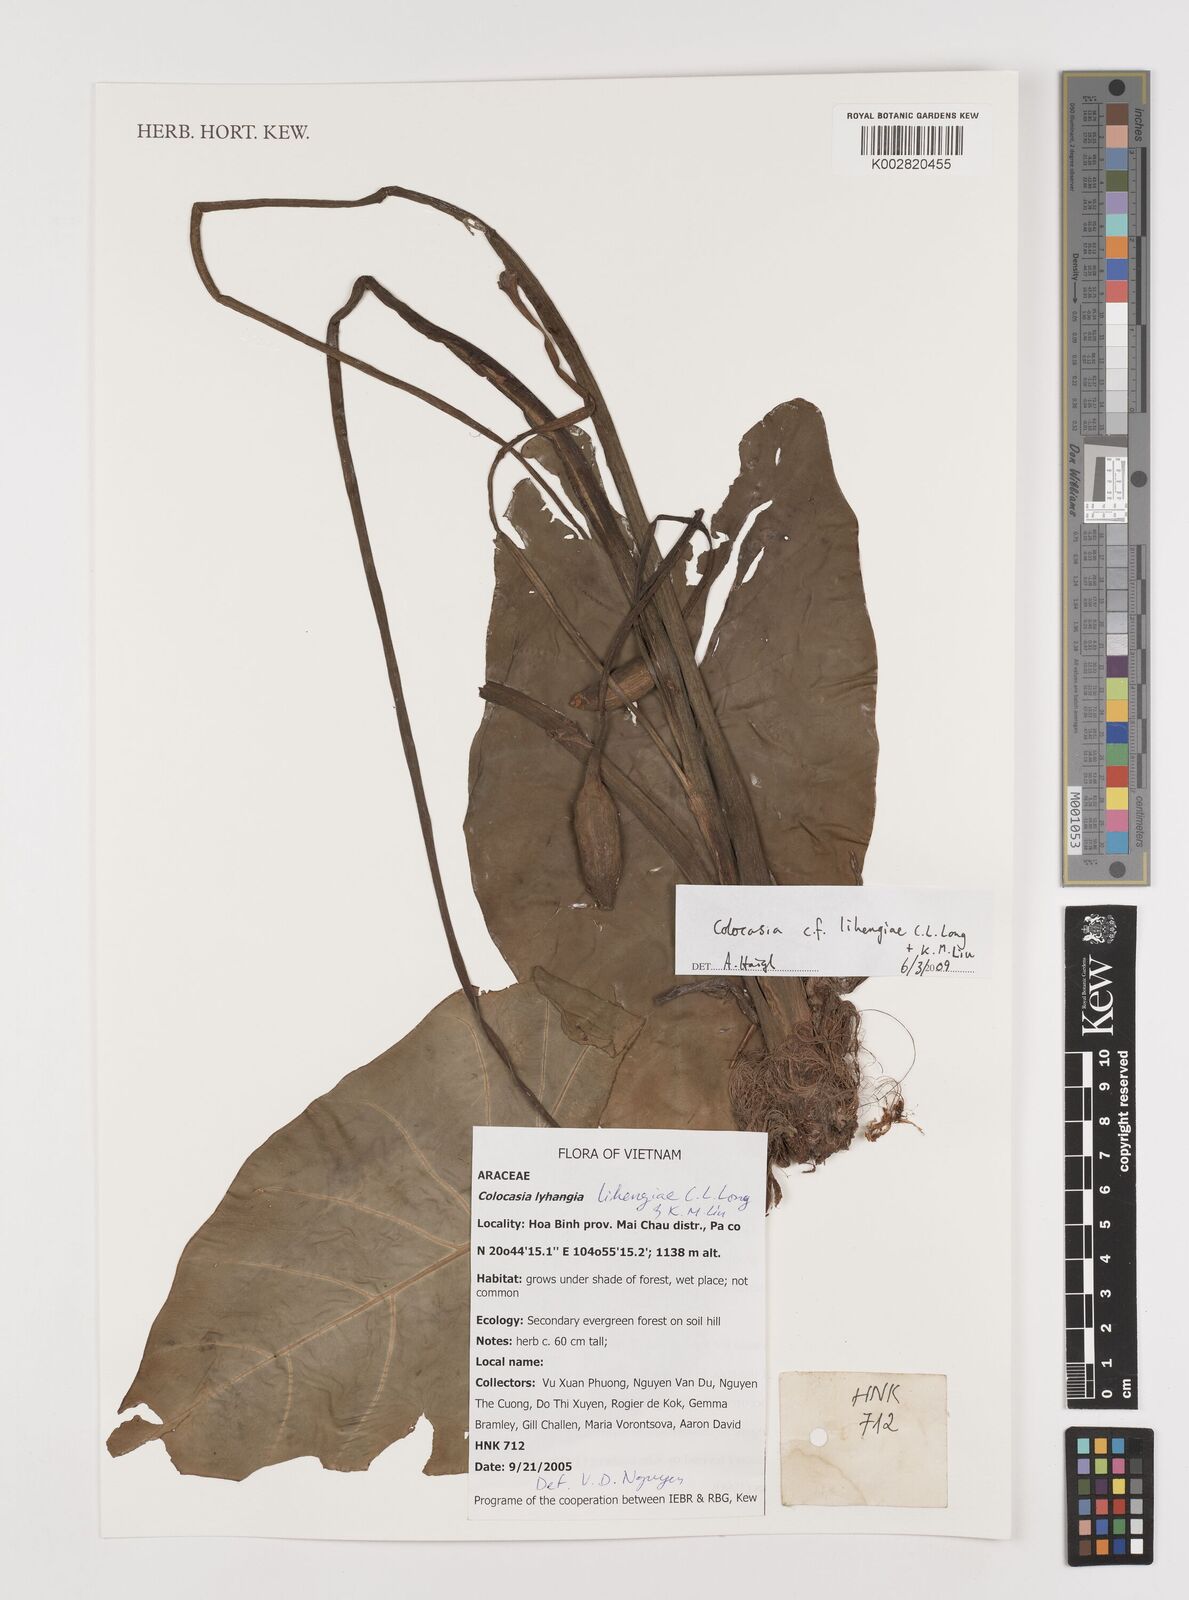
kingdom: Plantae
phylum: Tracheophyta
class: Liliopsida
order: Alismatales
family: Araceae
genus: Colocasia
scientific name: Colocasia lihengiae
